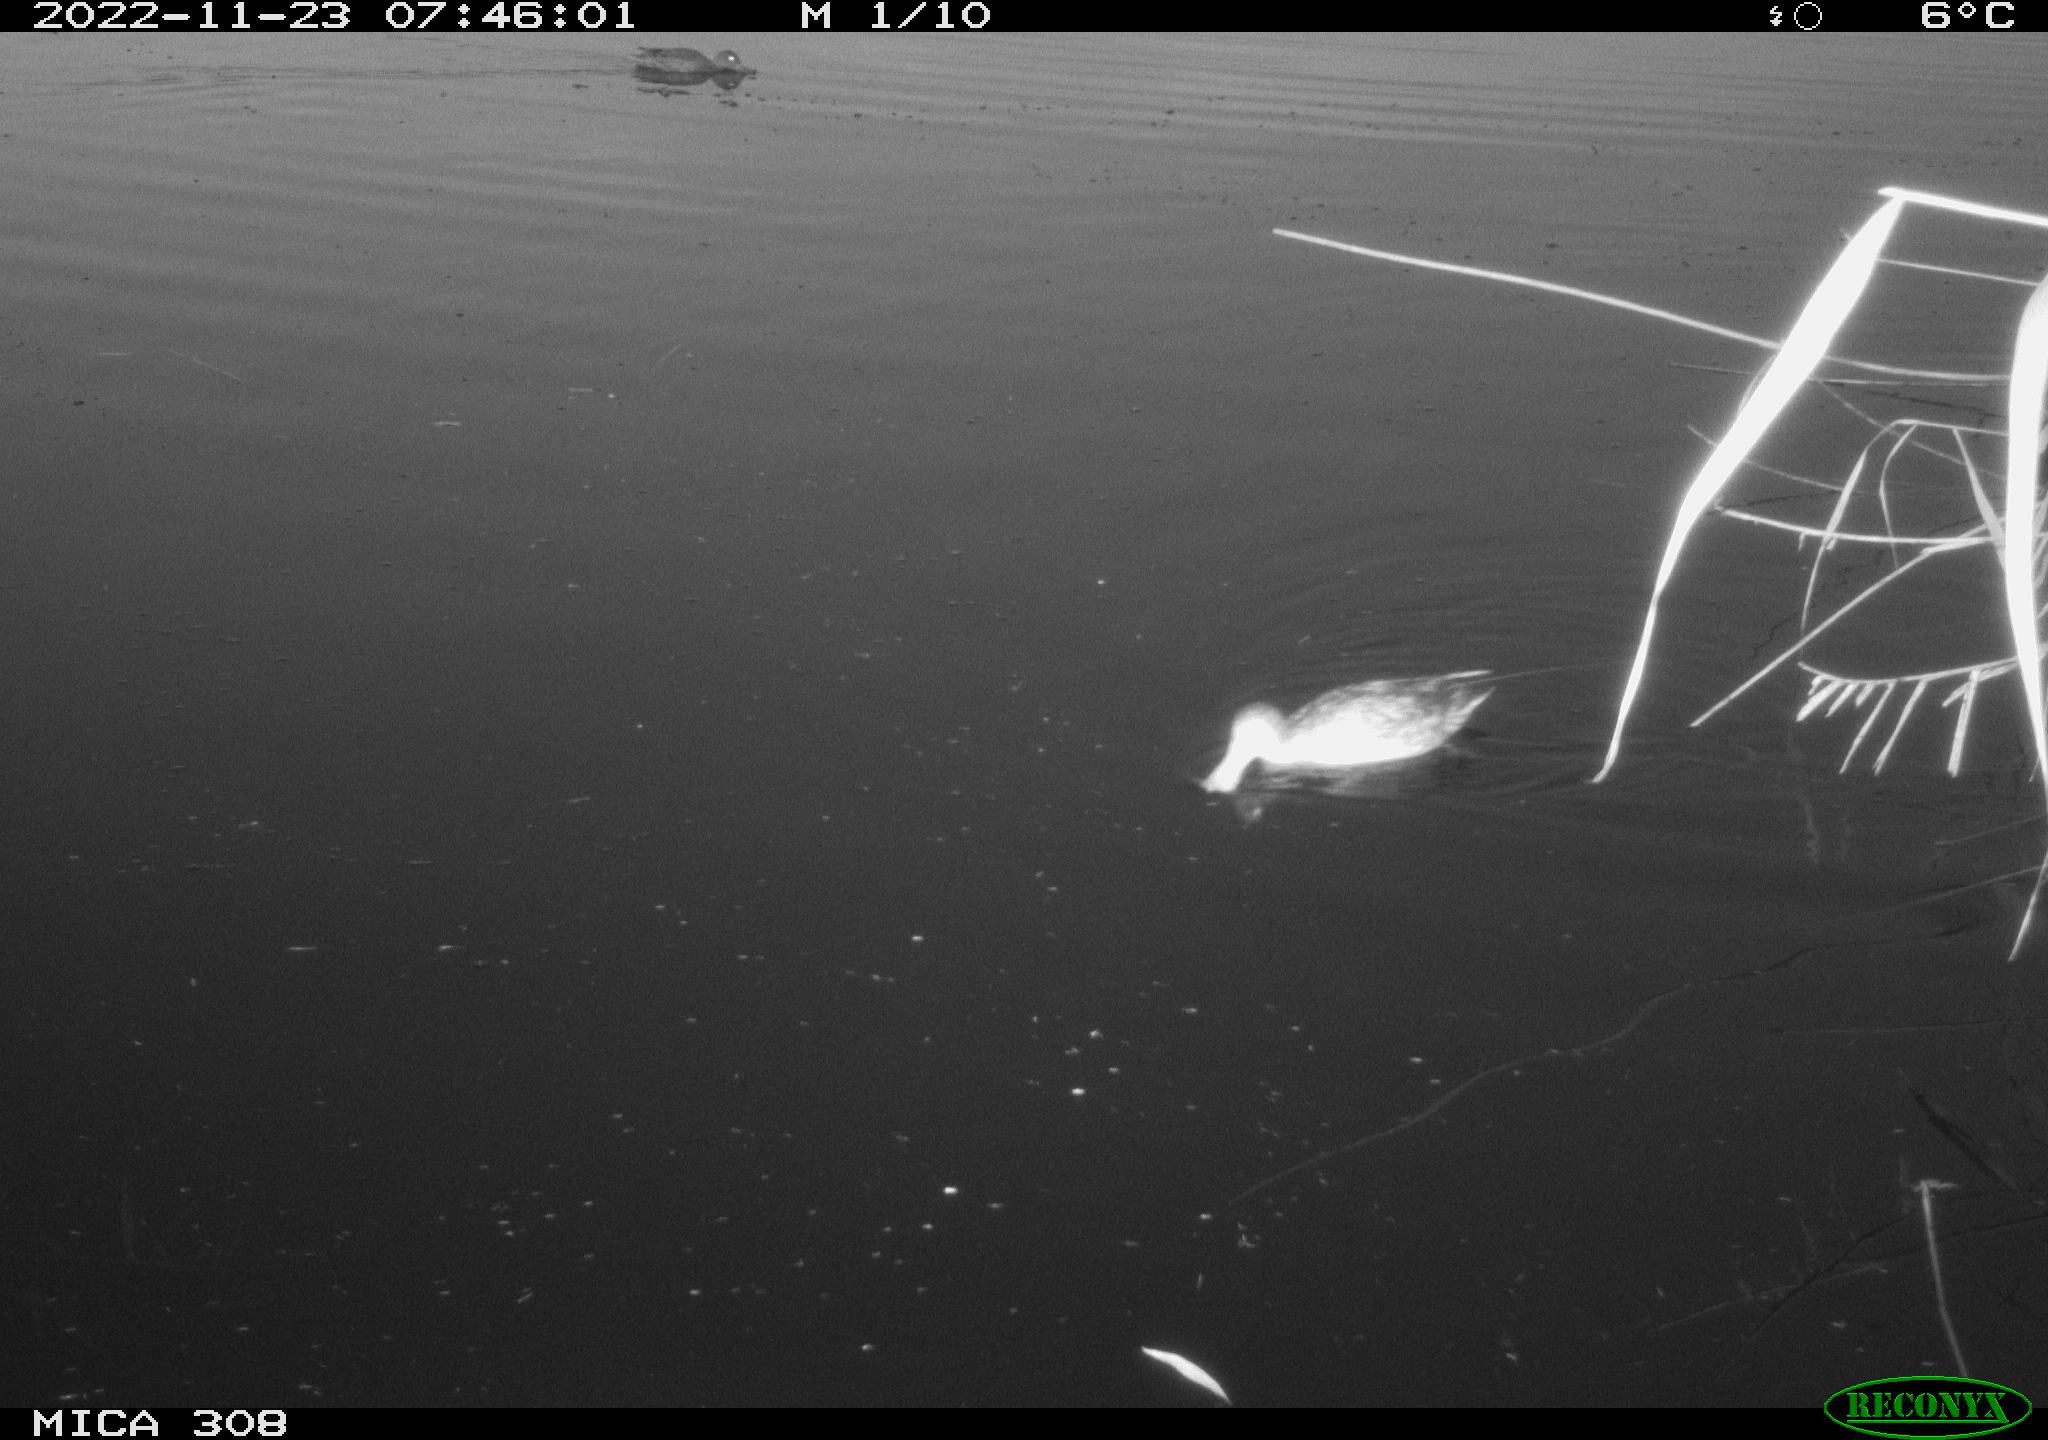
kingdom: Animalia
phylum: Chordata
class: Aves
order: Gruiformes
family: Rallidae
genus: Gallinula
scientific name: Gallinula chloropus
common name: Common moorhen
